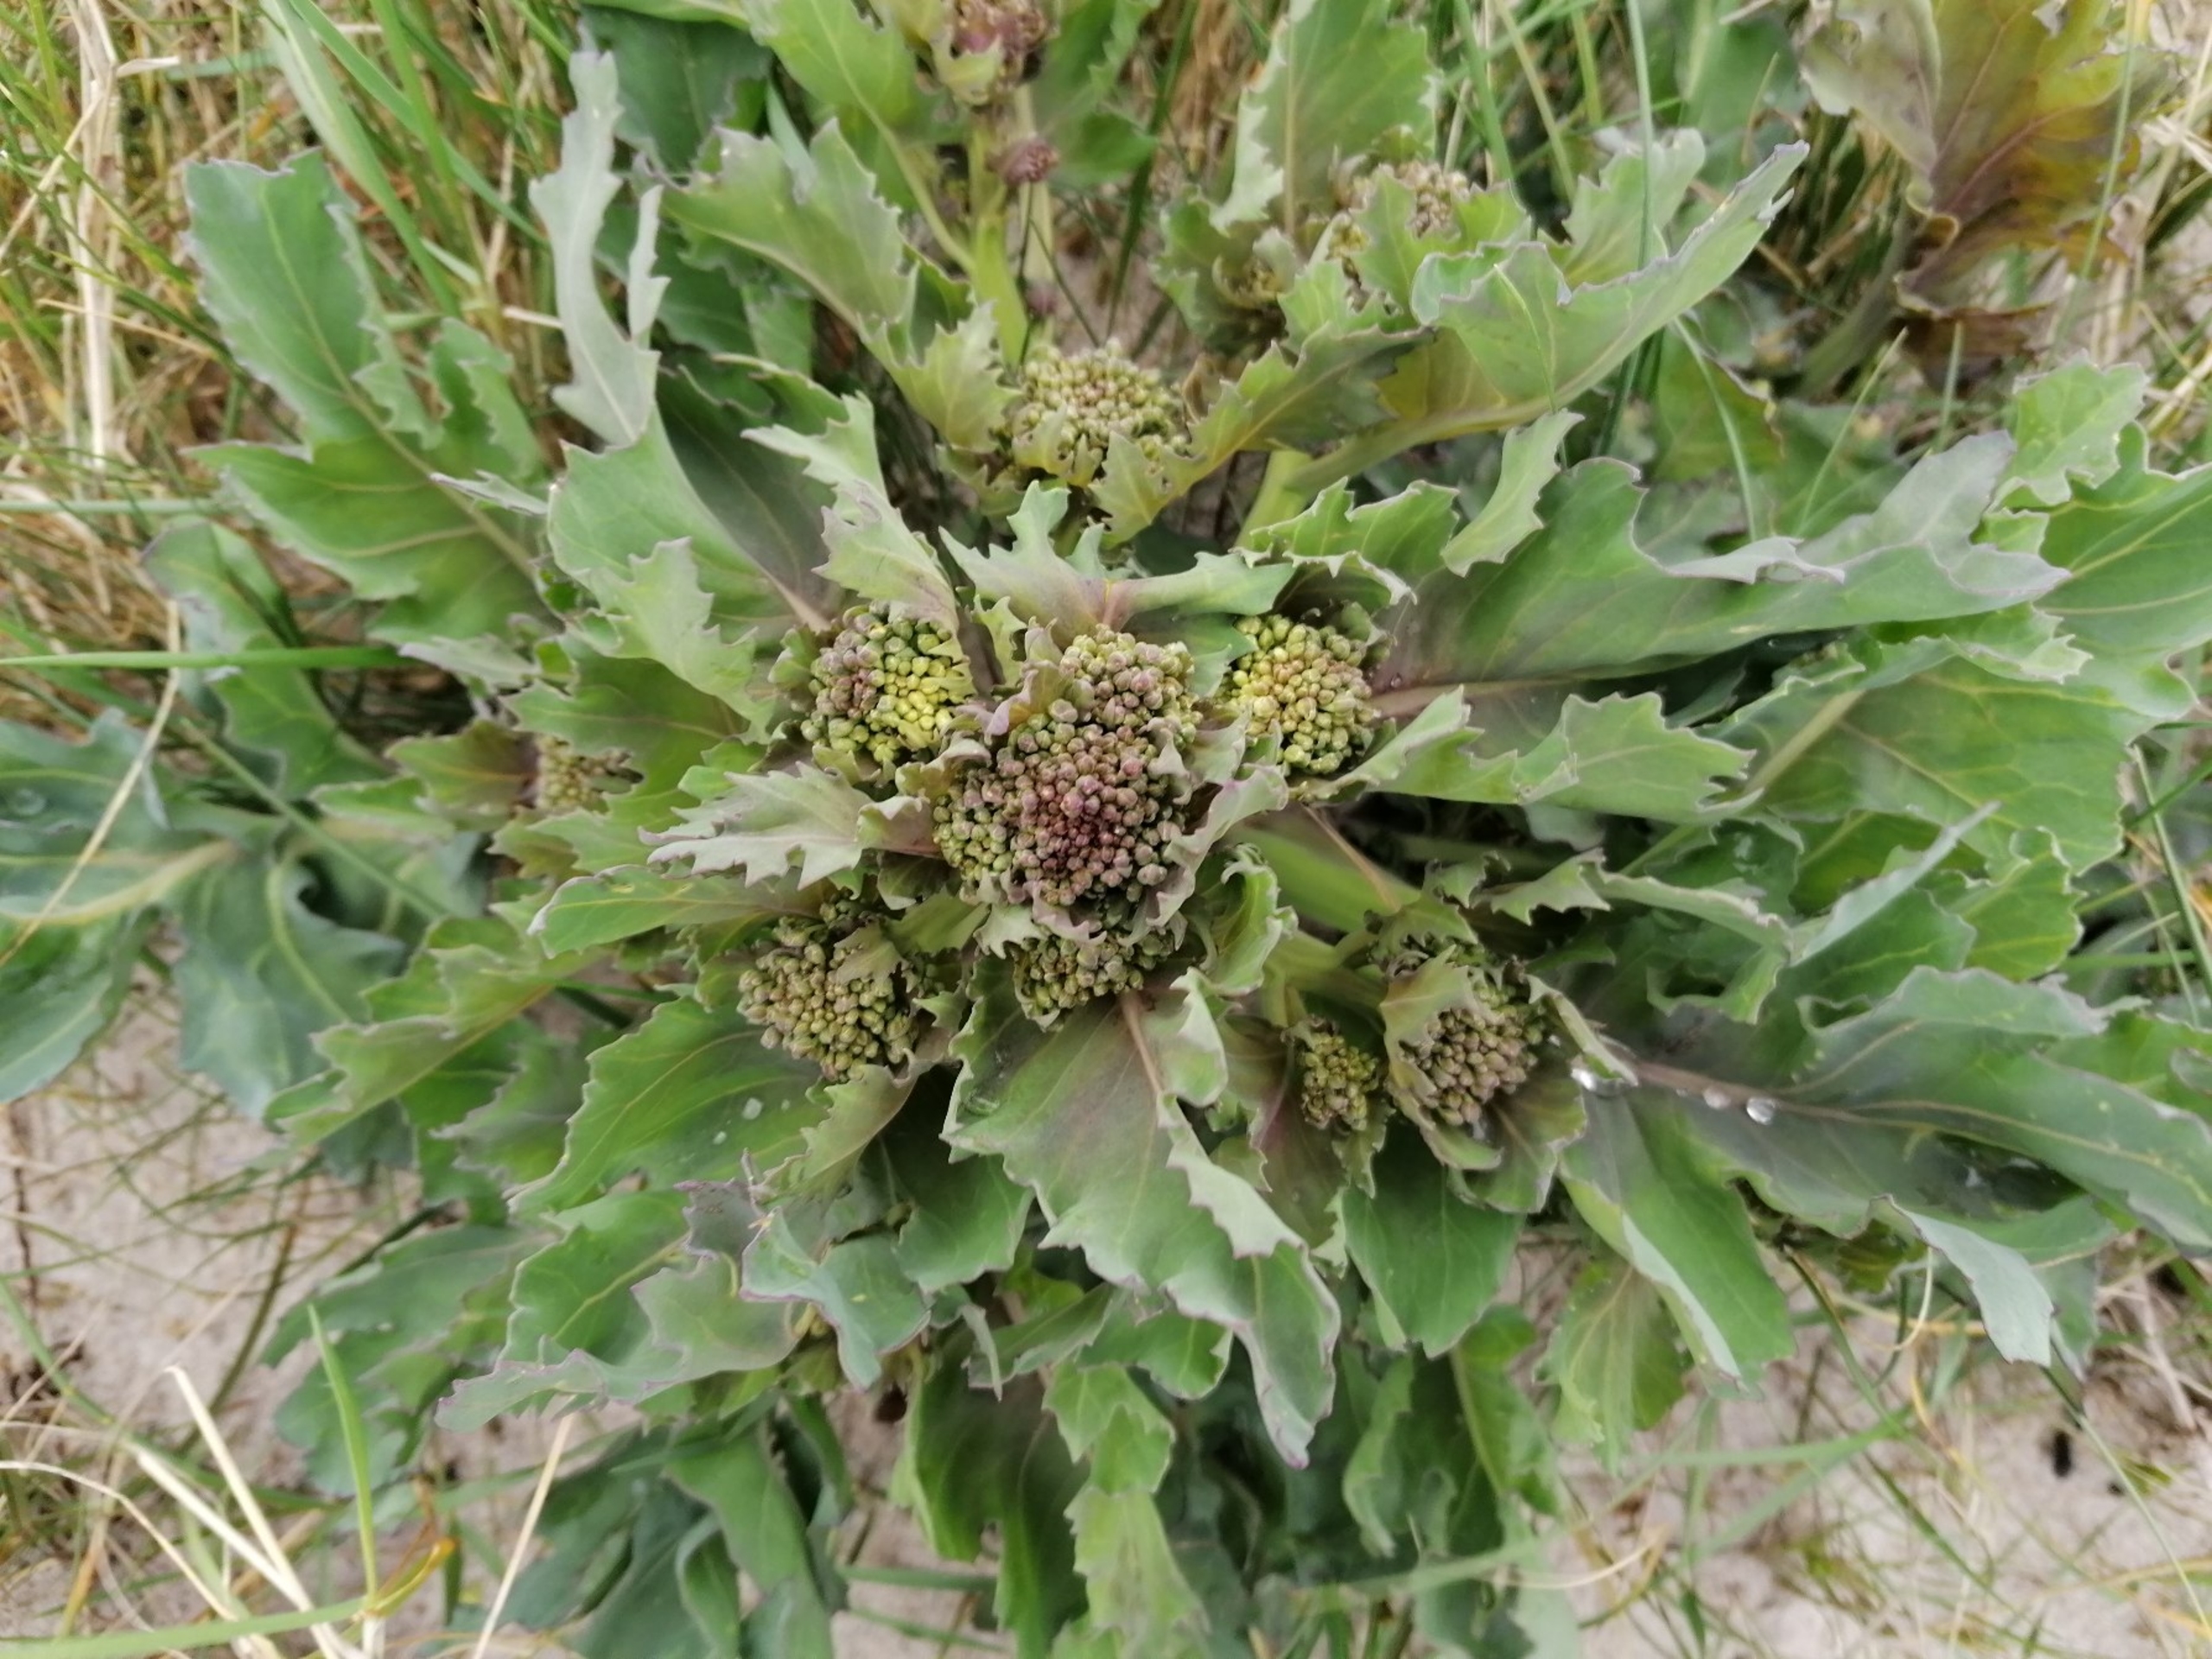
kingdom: Plantae
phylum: Tracheophyta
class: Magnoliopsida
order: Brassicales
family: Brassicaceae
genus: Crambe
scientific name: Crambe maritima
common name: Strandkål
